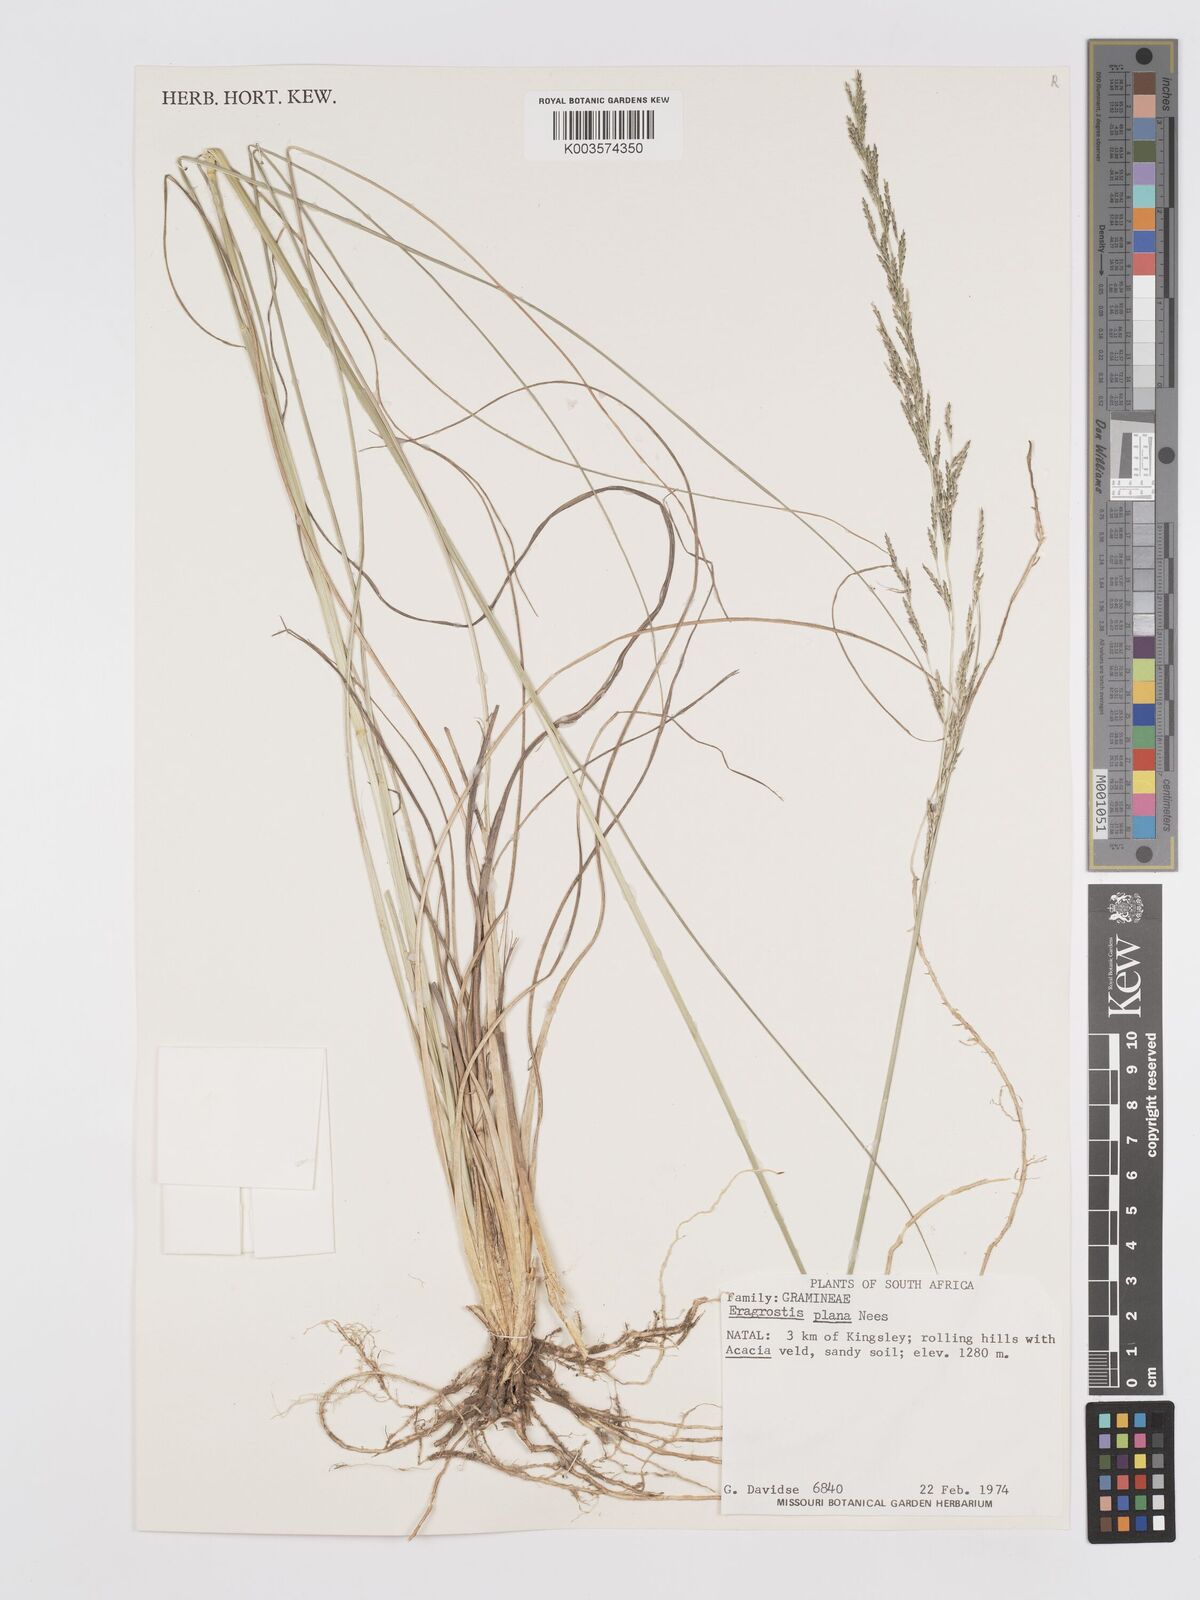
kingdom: Plantae
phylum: Tracheophyta
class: Liliopsida
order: Poales
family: Poaceae
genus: Eragrostis
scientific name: Eragrostis plana
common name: South african lovegrass
